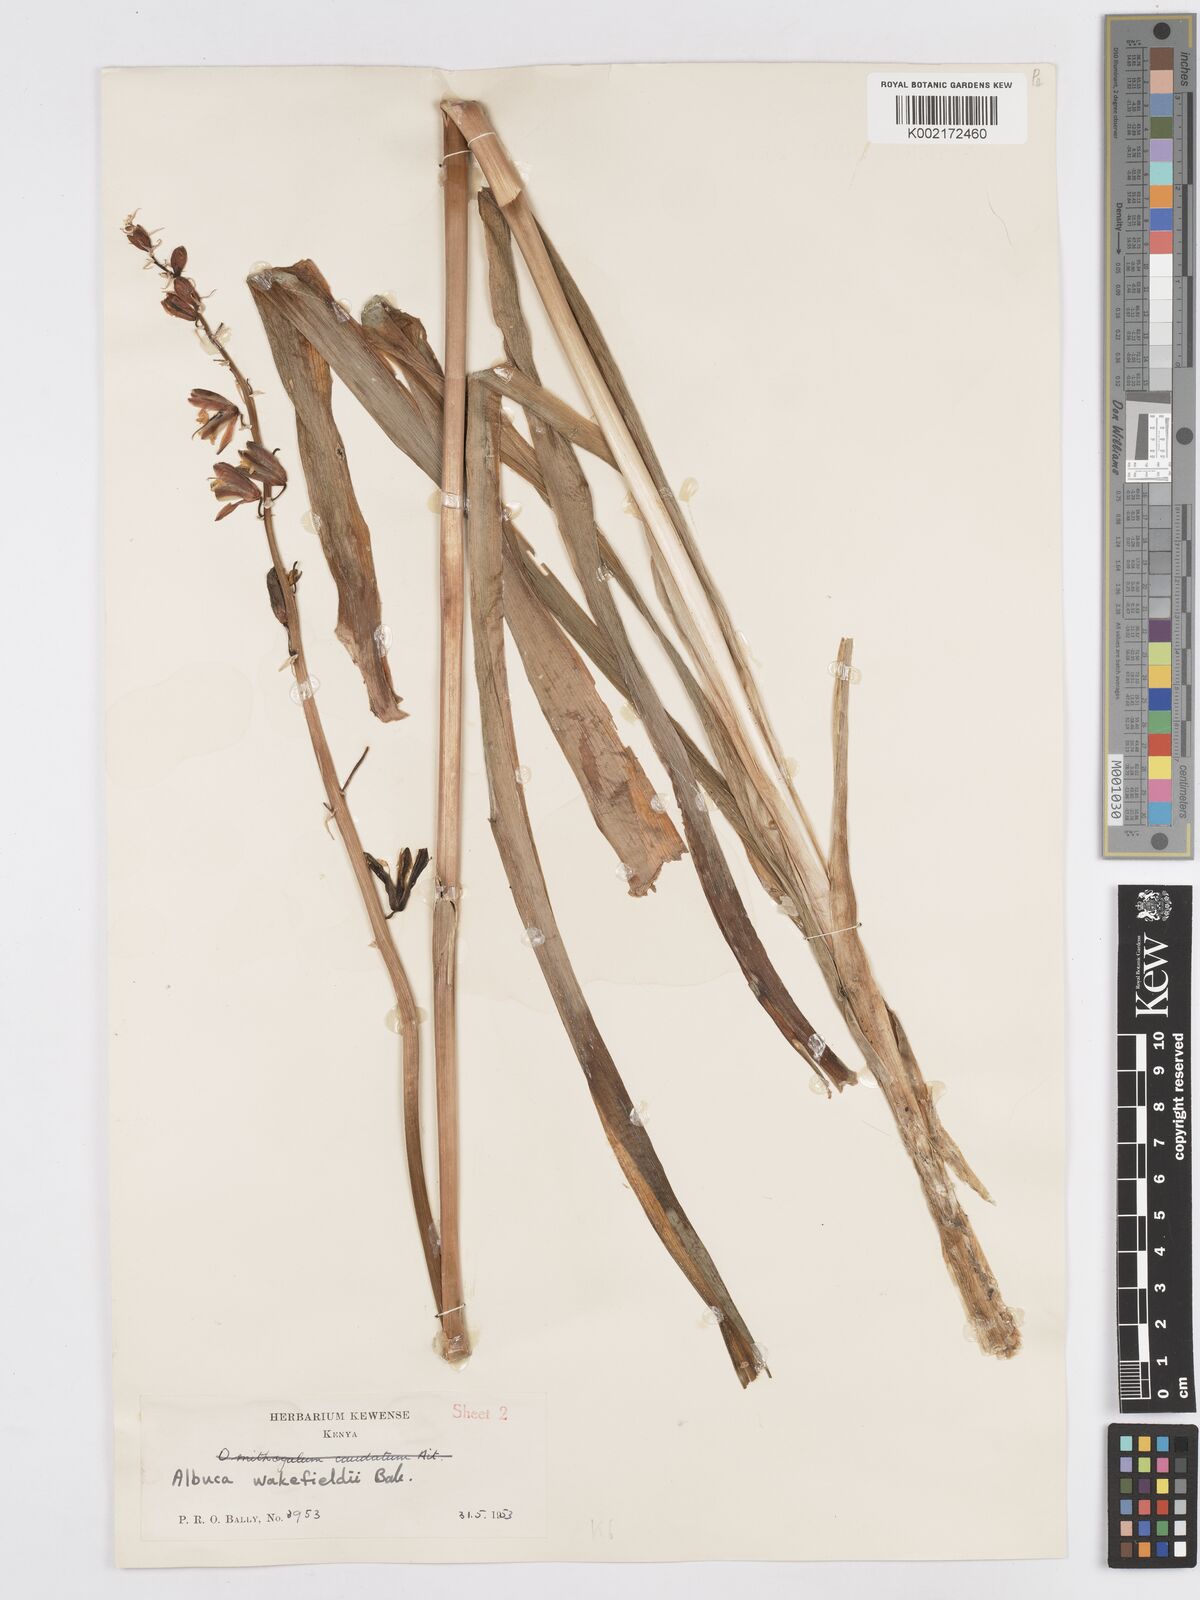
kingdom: Plantae
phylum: Tracheophyta
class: Liliopsida
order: Asparagales
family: Asparagaceae
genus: Albuca
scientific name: Albuca abyssinica
